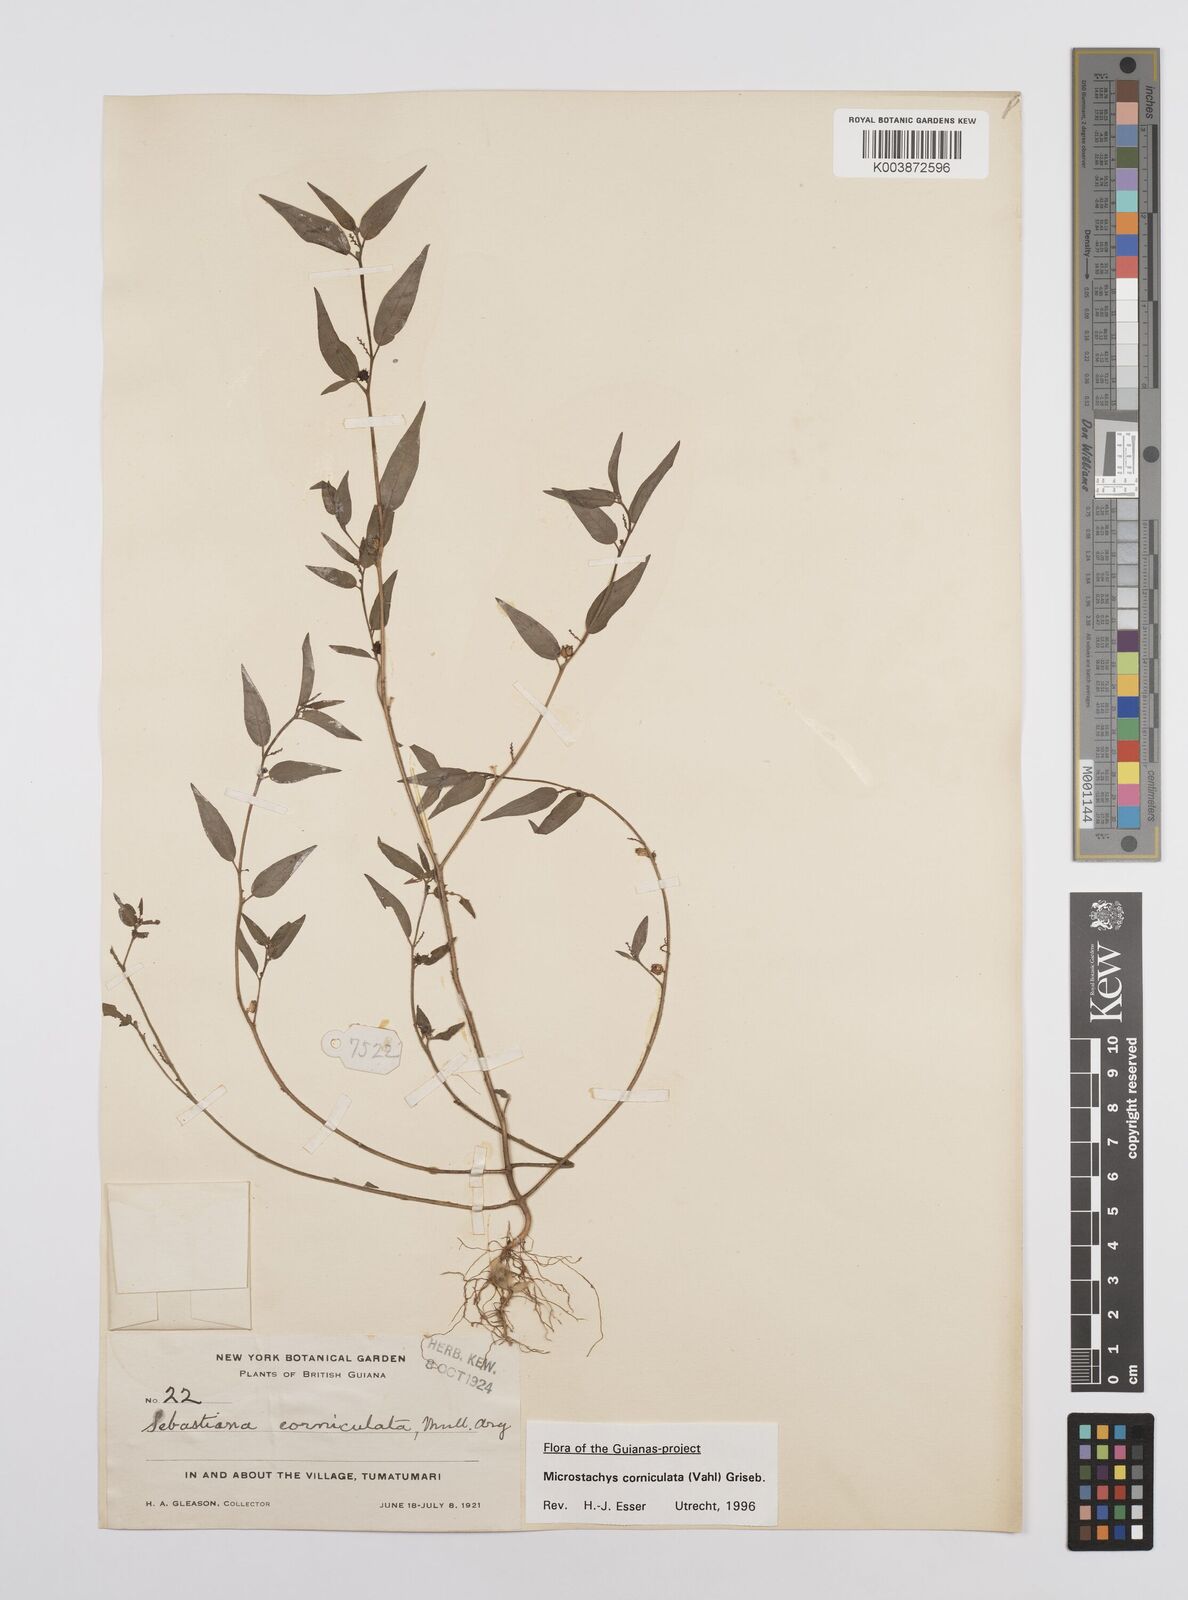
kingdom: Plantae
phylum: Tracheophyta
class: Magnoliopsida
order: Malpighiales
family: Euphorbiaceae
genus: Microstachys
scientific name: Microstachys corniculata
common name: Hato tejas
